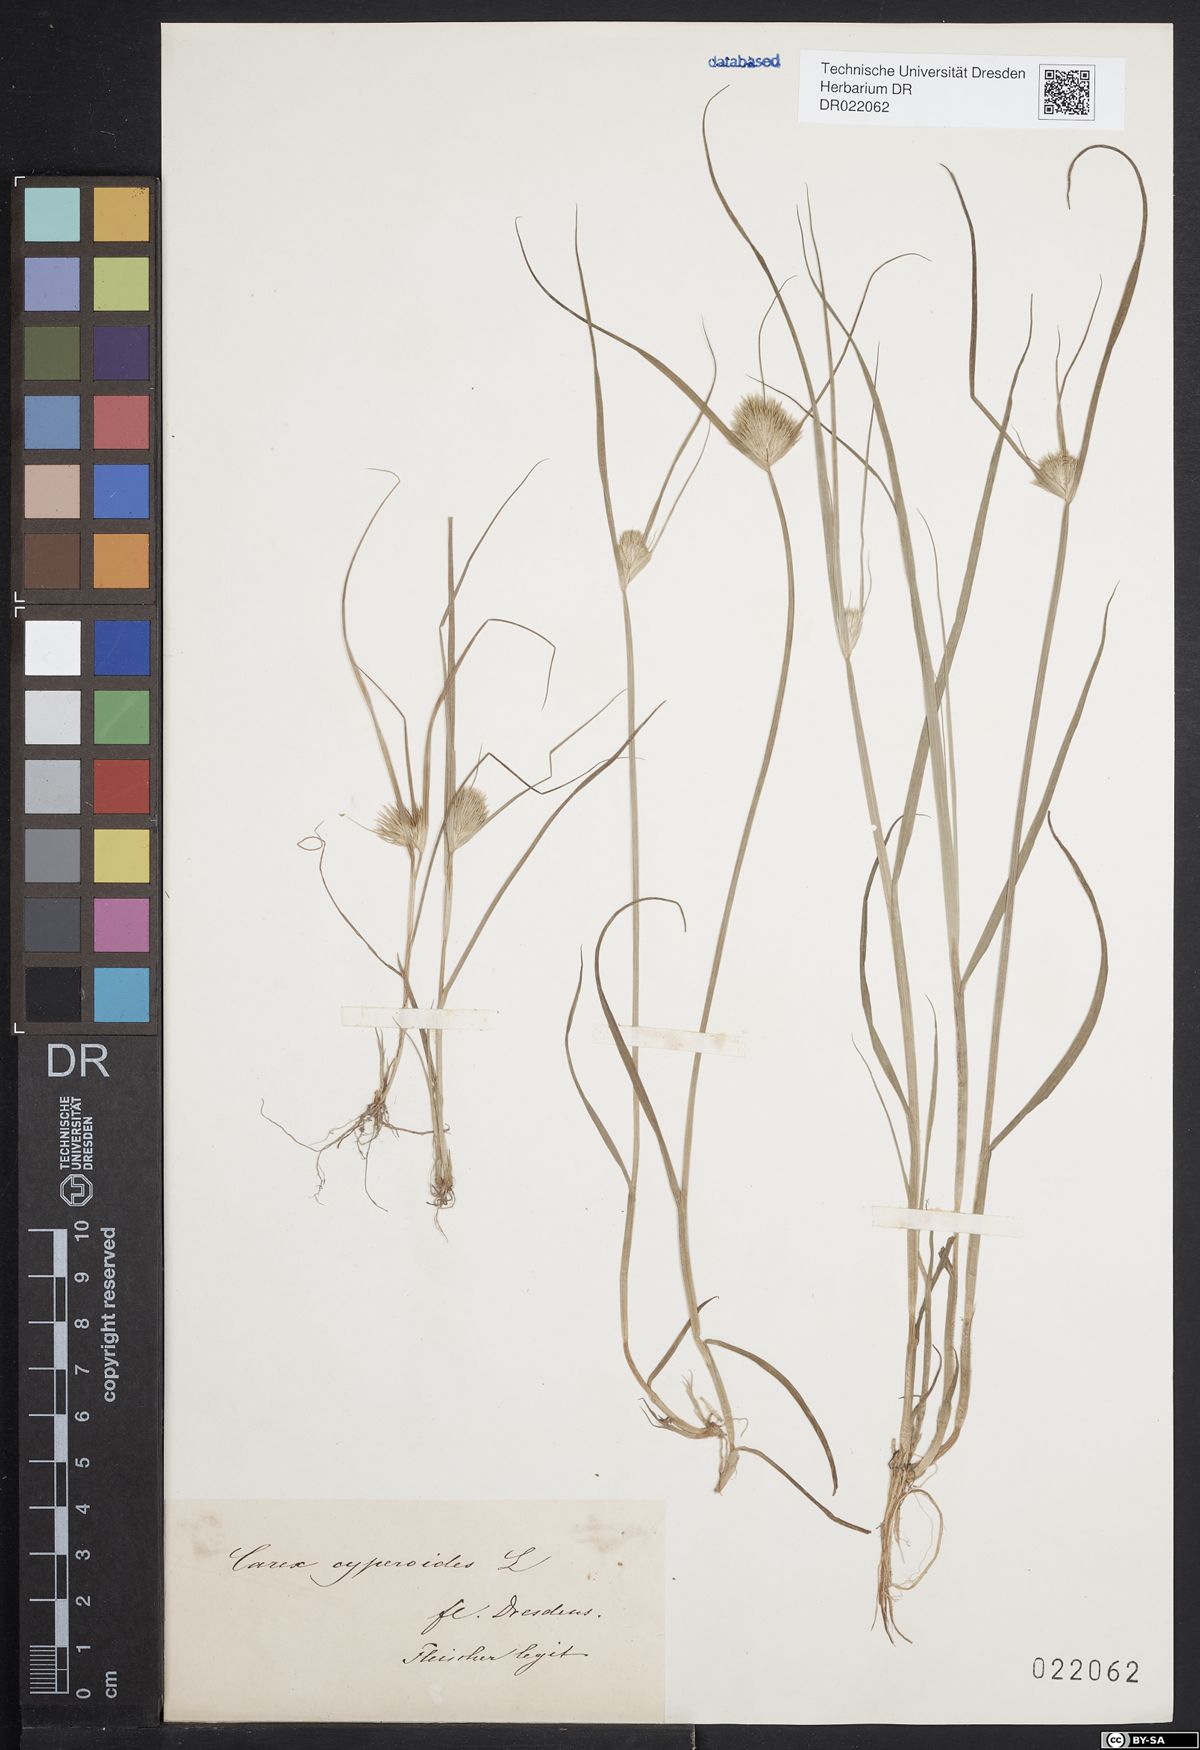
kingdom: Plantae
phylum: Tracheophyta
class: Liliopsida
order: Poales
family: Cyperaceae
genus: Carex
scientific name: Carex bohemica
